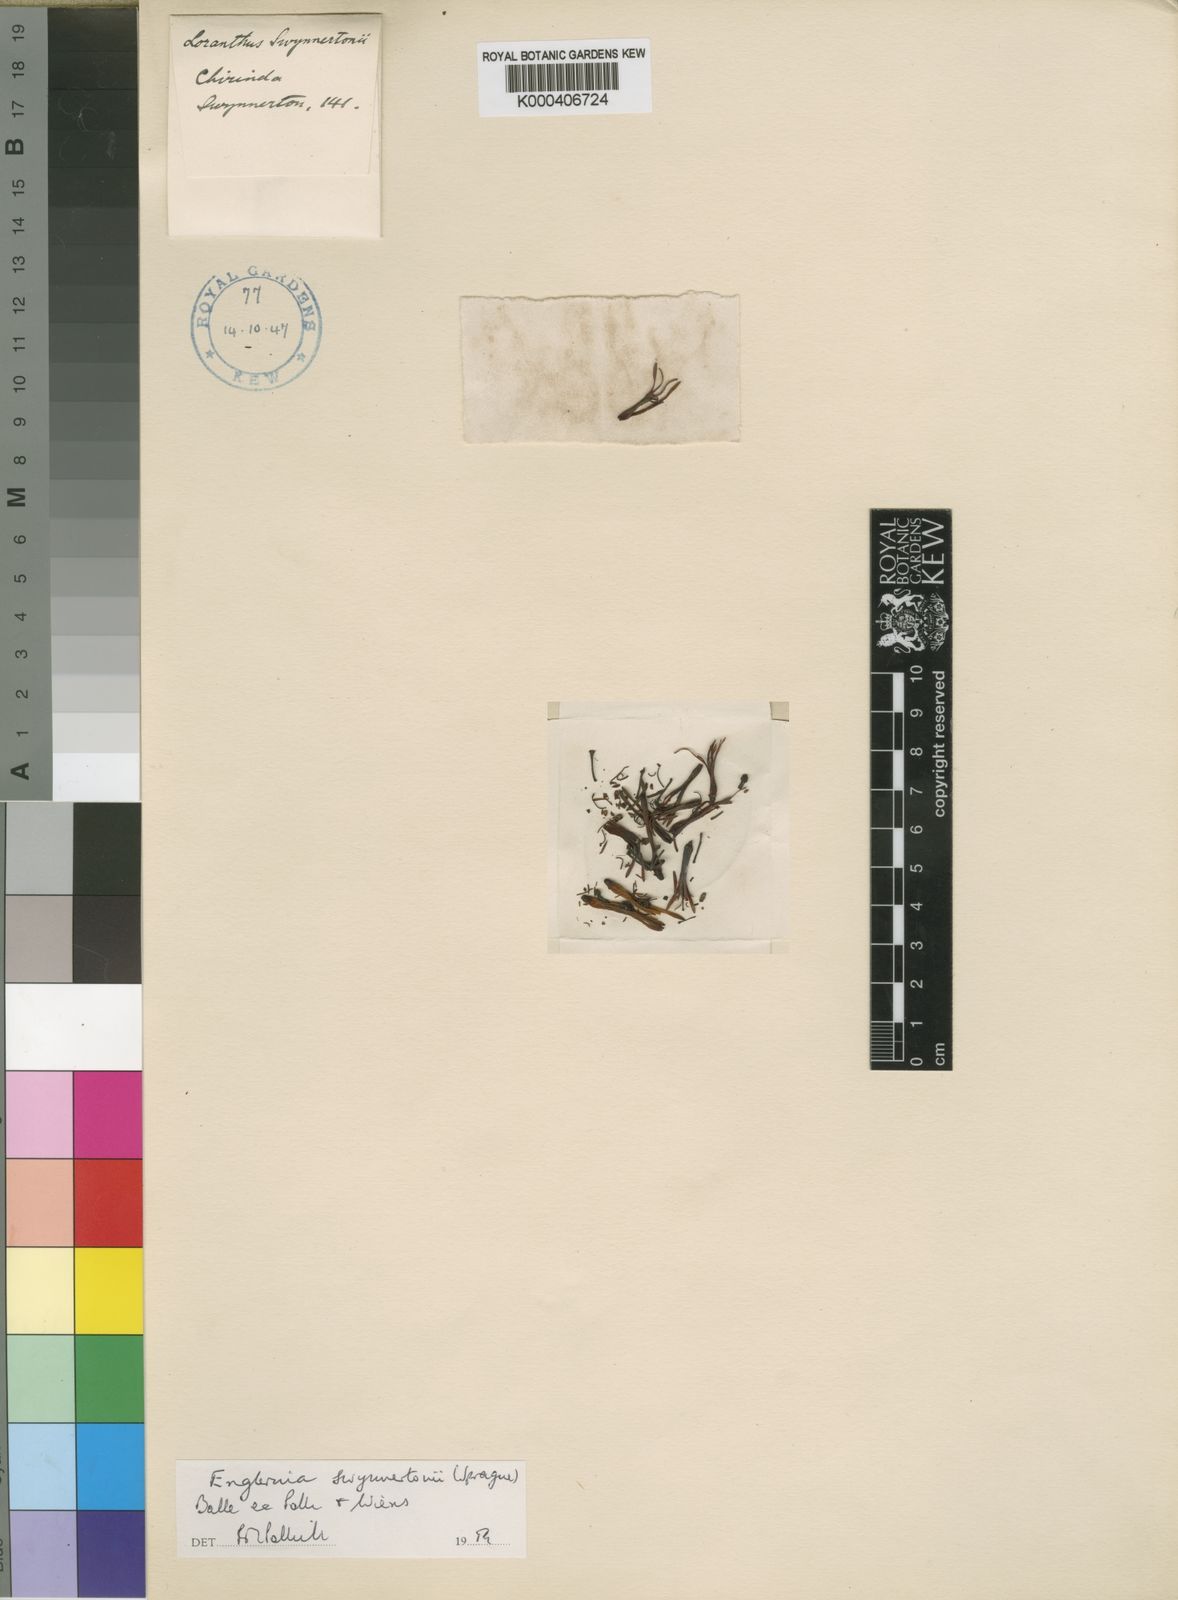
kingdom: Plantae
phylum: Tracheophyta
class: Magnoliopsida
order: Santalales
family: Loranthaceae
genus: Englerina
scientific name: Englerina swynnertonii
